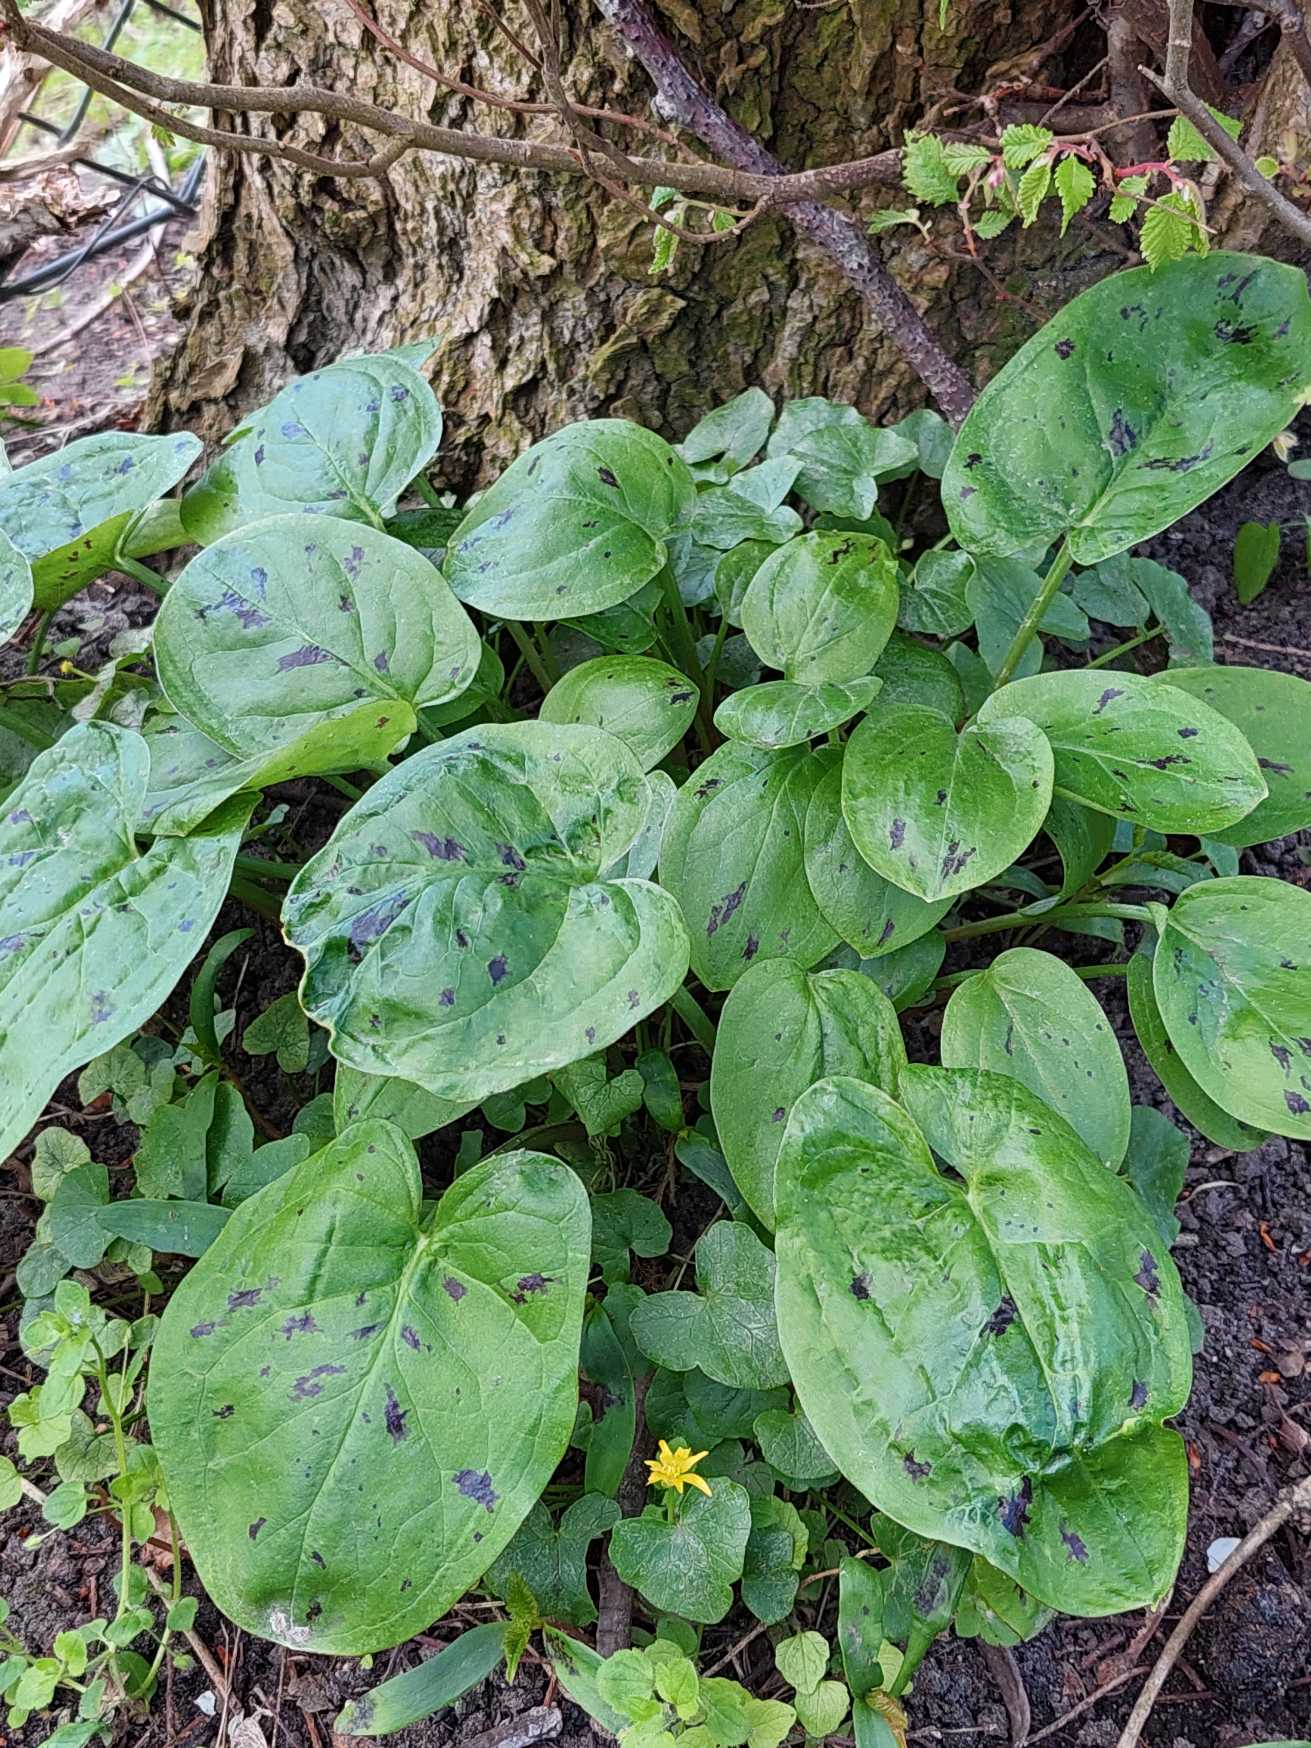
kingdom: Plantae
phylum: Tracheophyta
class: Liliopsida
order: Alismatales
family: Araceae
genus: Arum
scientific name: Arum maculatum
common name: Plettet arum
